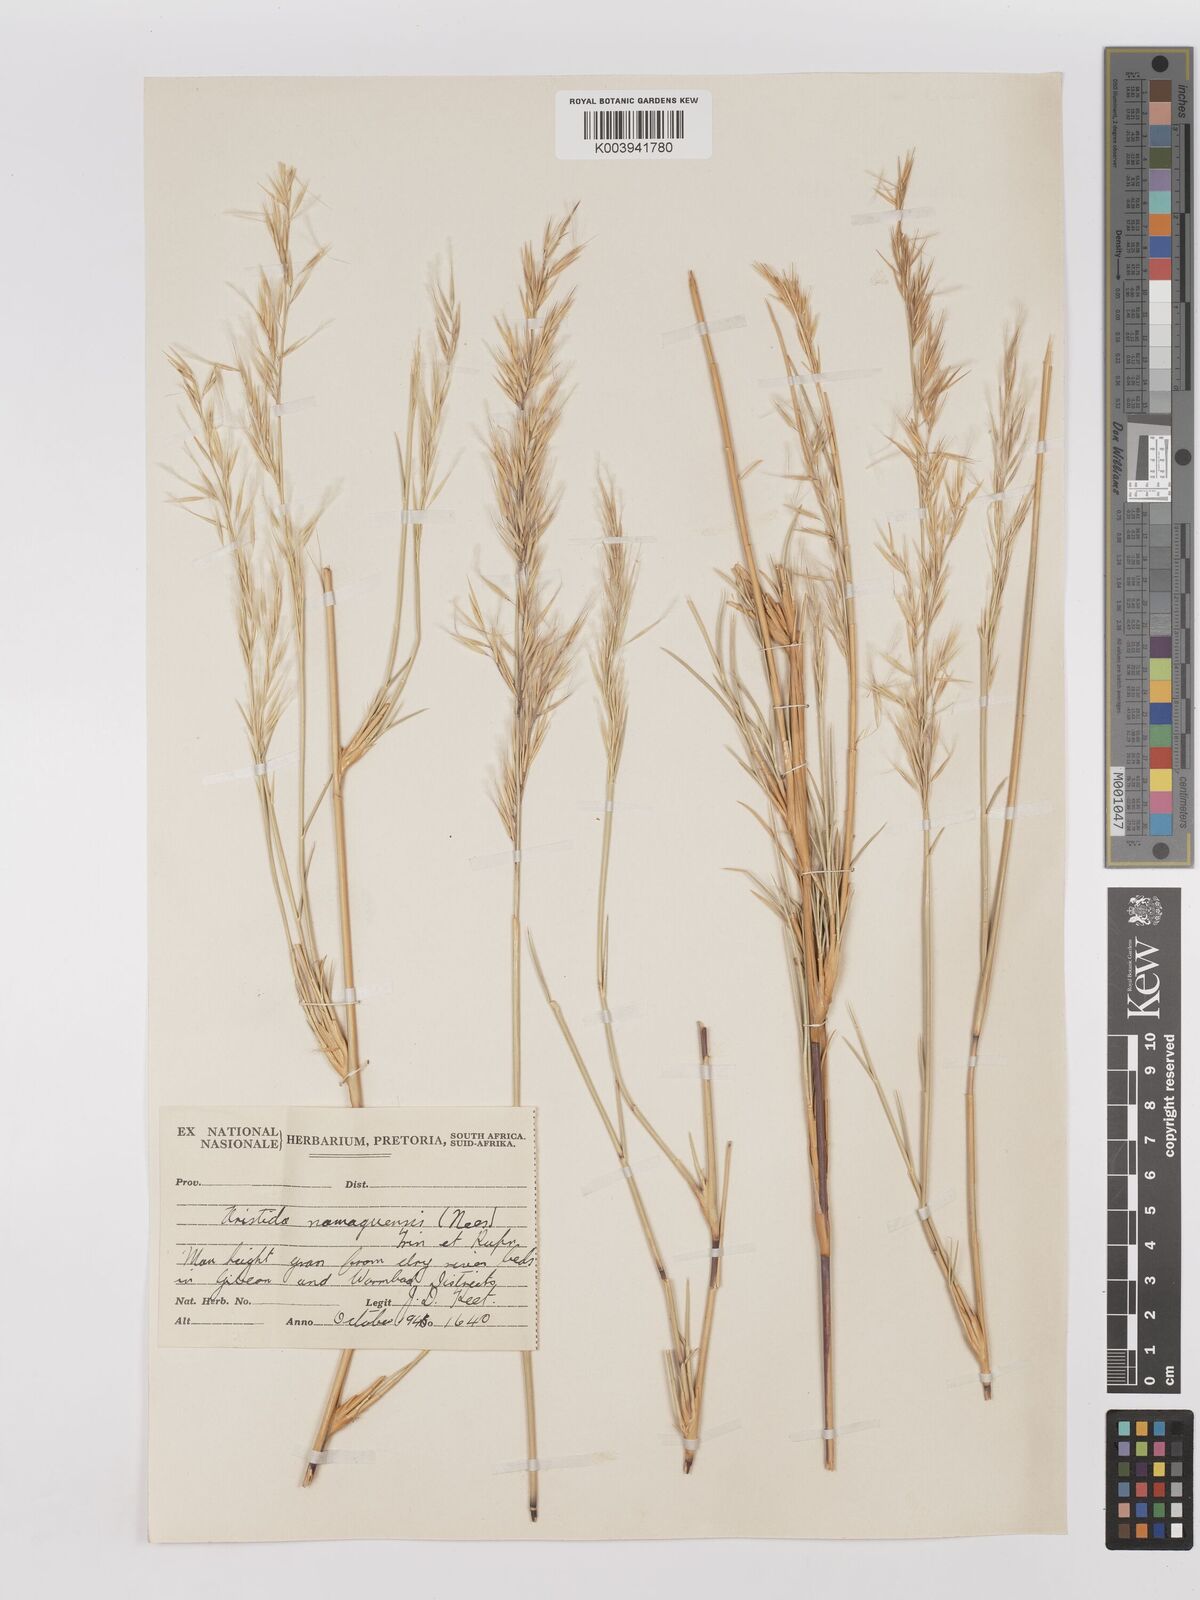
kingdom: Plantae
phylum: Tracheophyta
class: Liliopsida
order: Poales
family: Poaceae
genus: Stipagrostis
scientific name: Stipagrostis namaquensis
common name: River bushman grass
